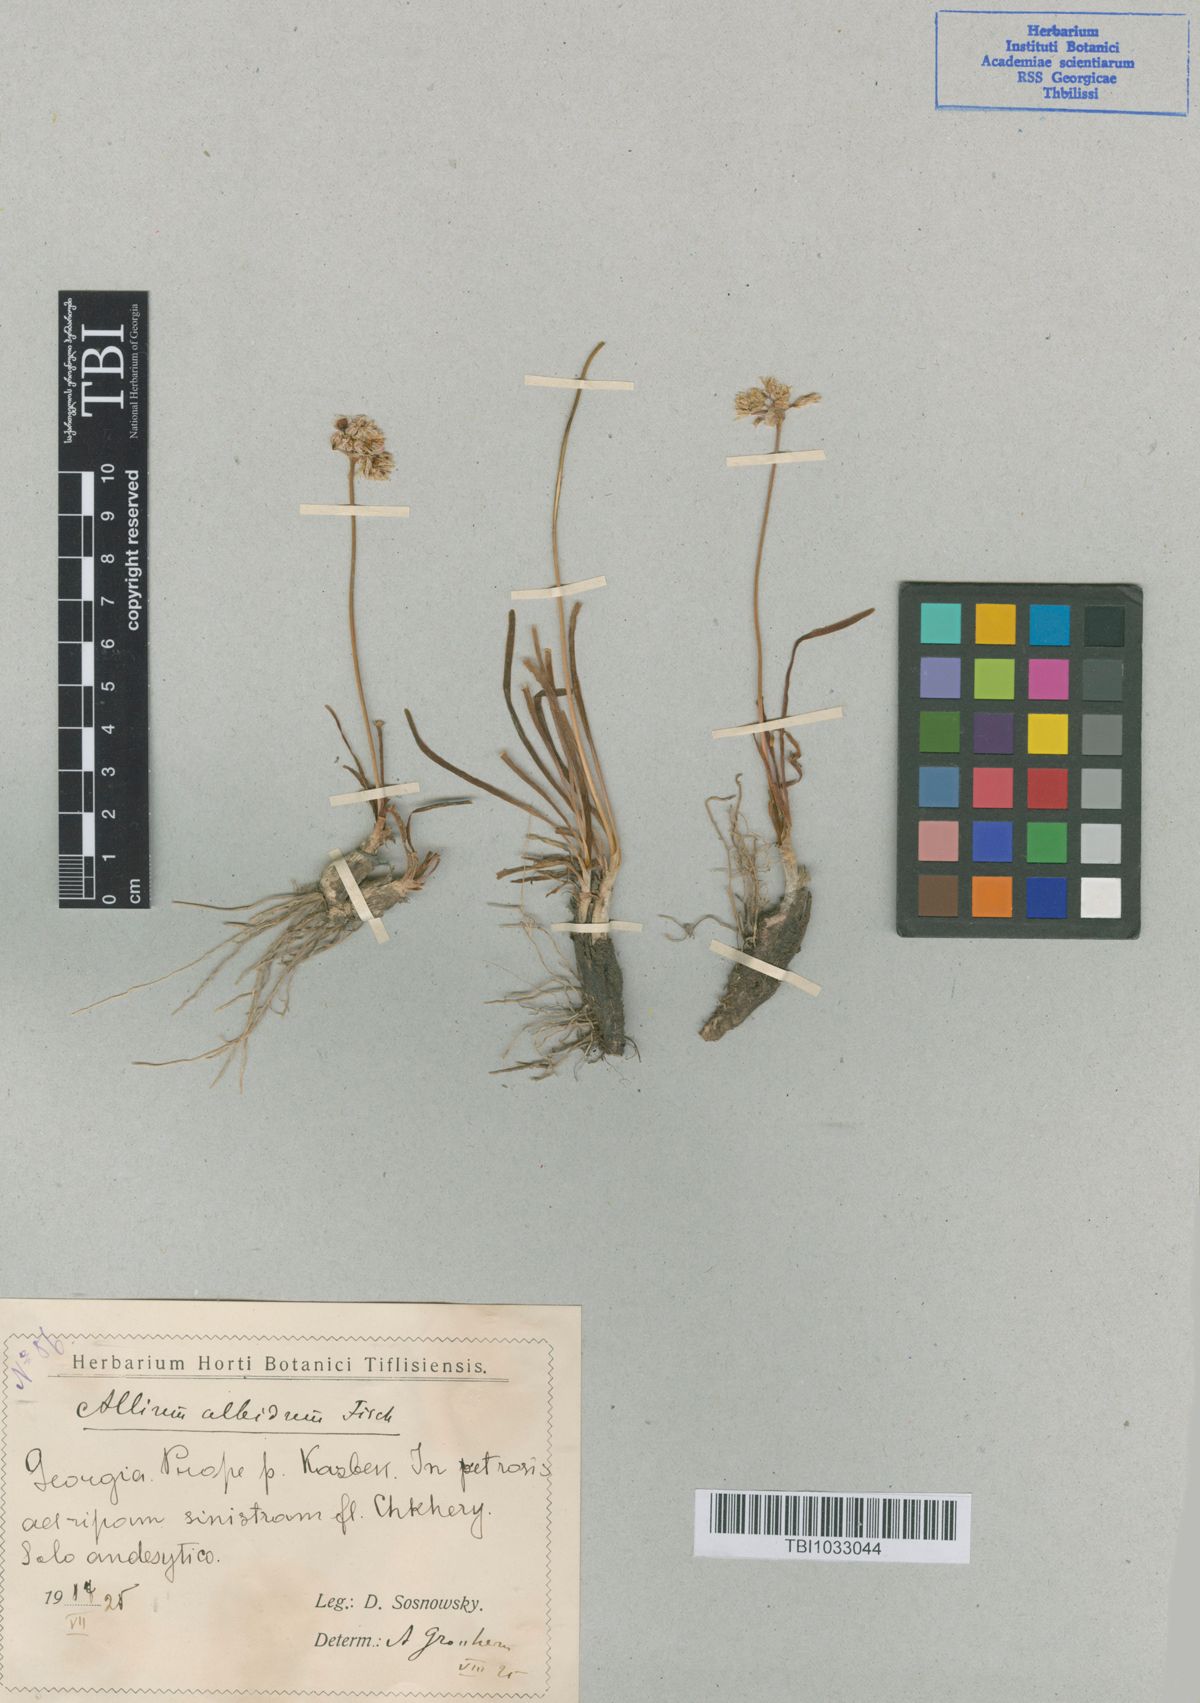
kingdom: Plantae
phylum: Tracheophyta
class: Liliopsida
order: Asparagales
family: Amaryllidaceae
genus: Allium
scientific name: Allium denudatum
